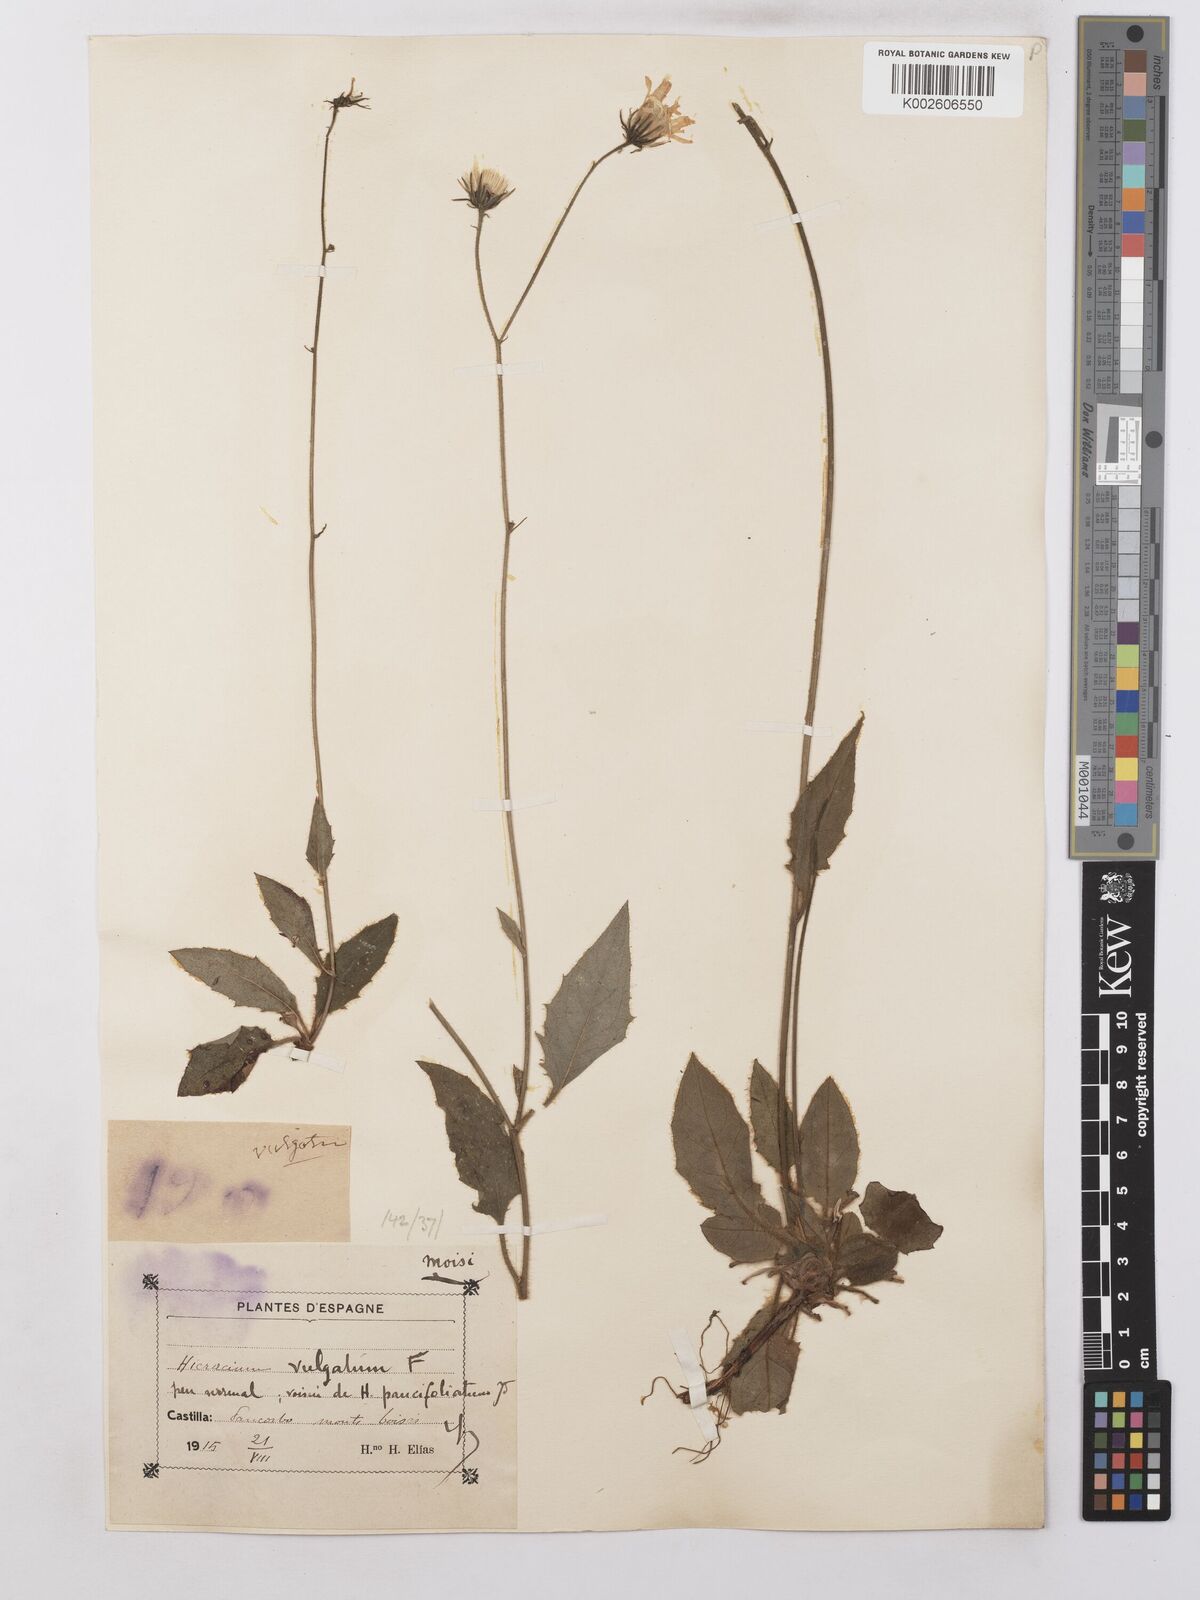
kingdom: Plantae
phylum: Tracheophyta
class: Magnoliopsida
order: Asterales
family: Asteraceae
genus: Hieracium
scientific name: Hieracium lachenalii
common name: Common hawkweed
